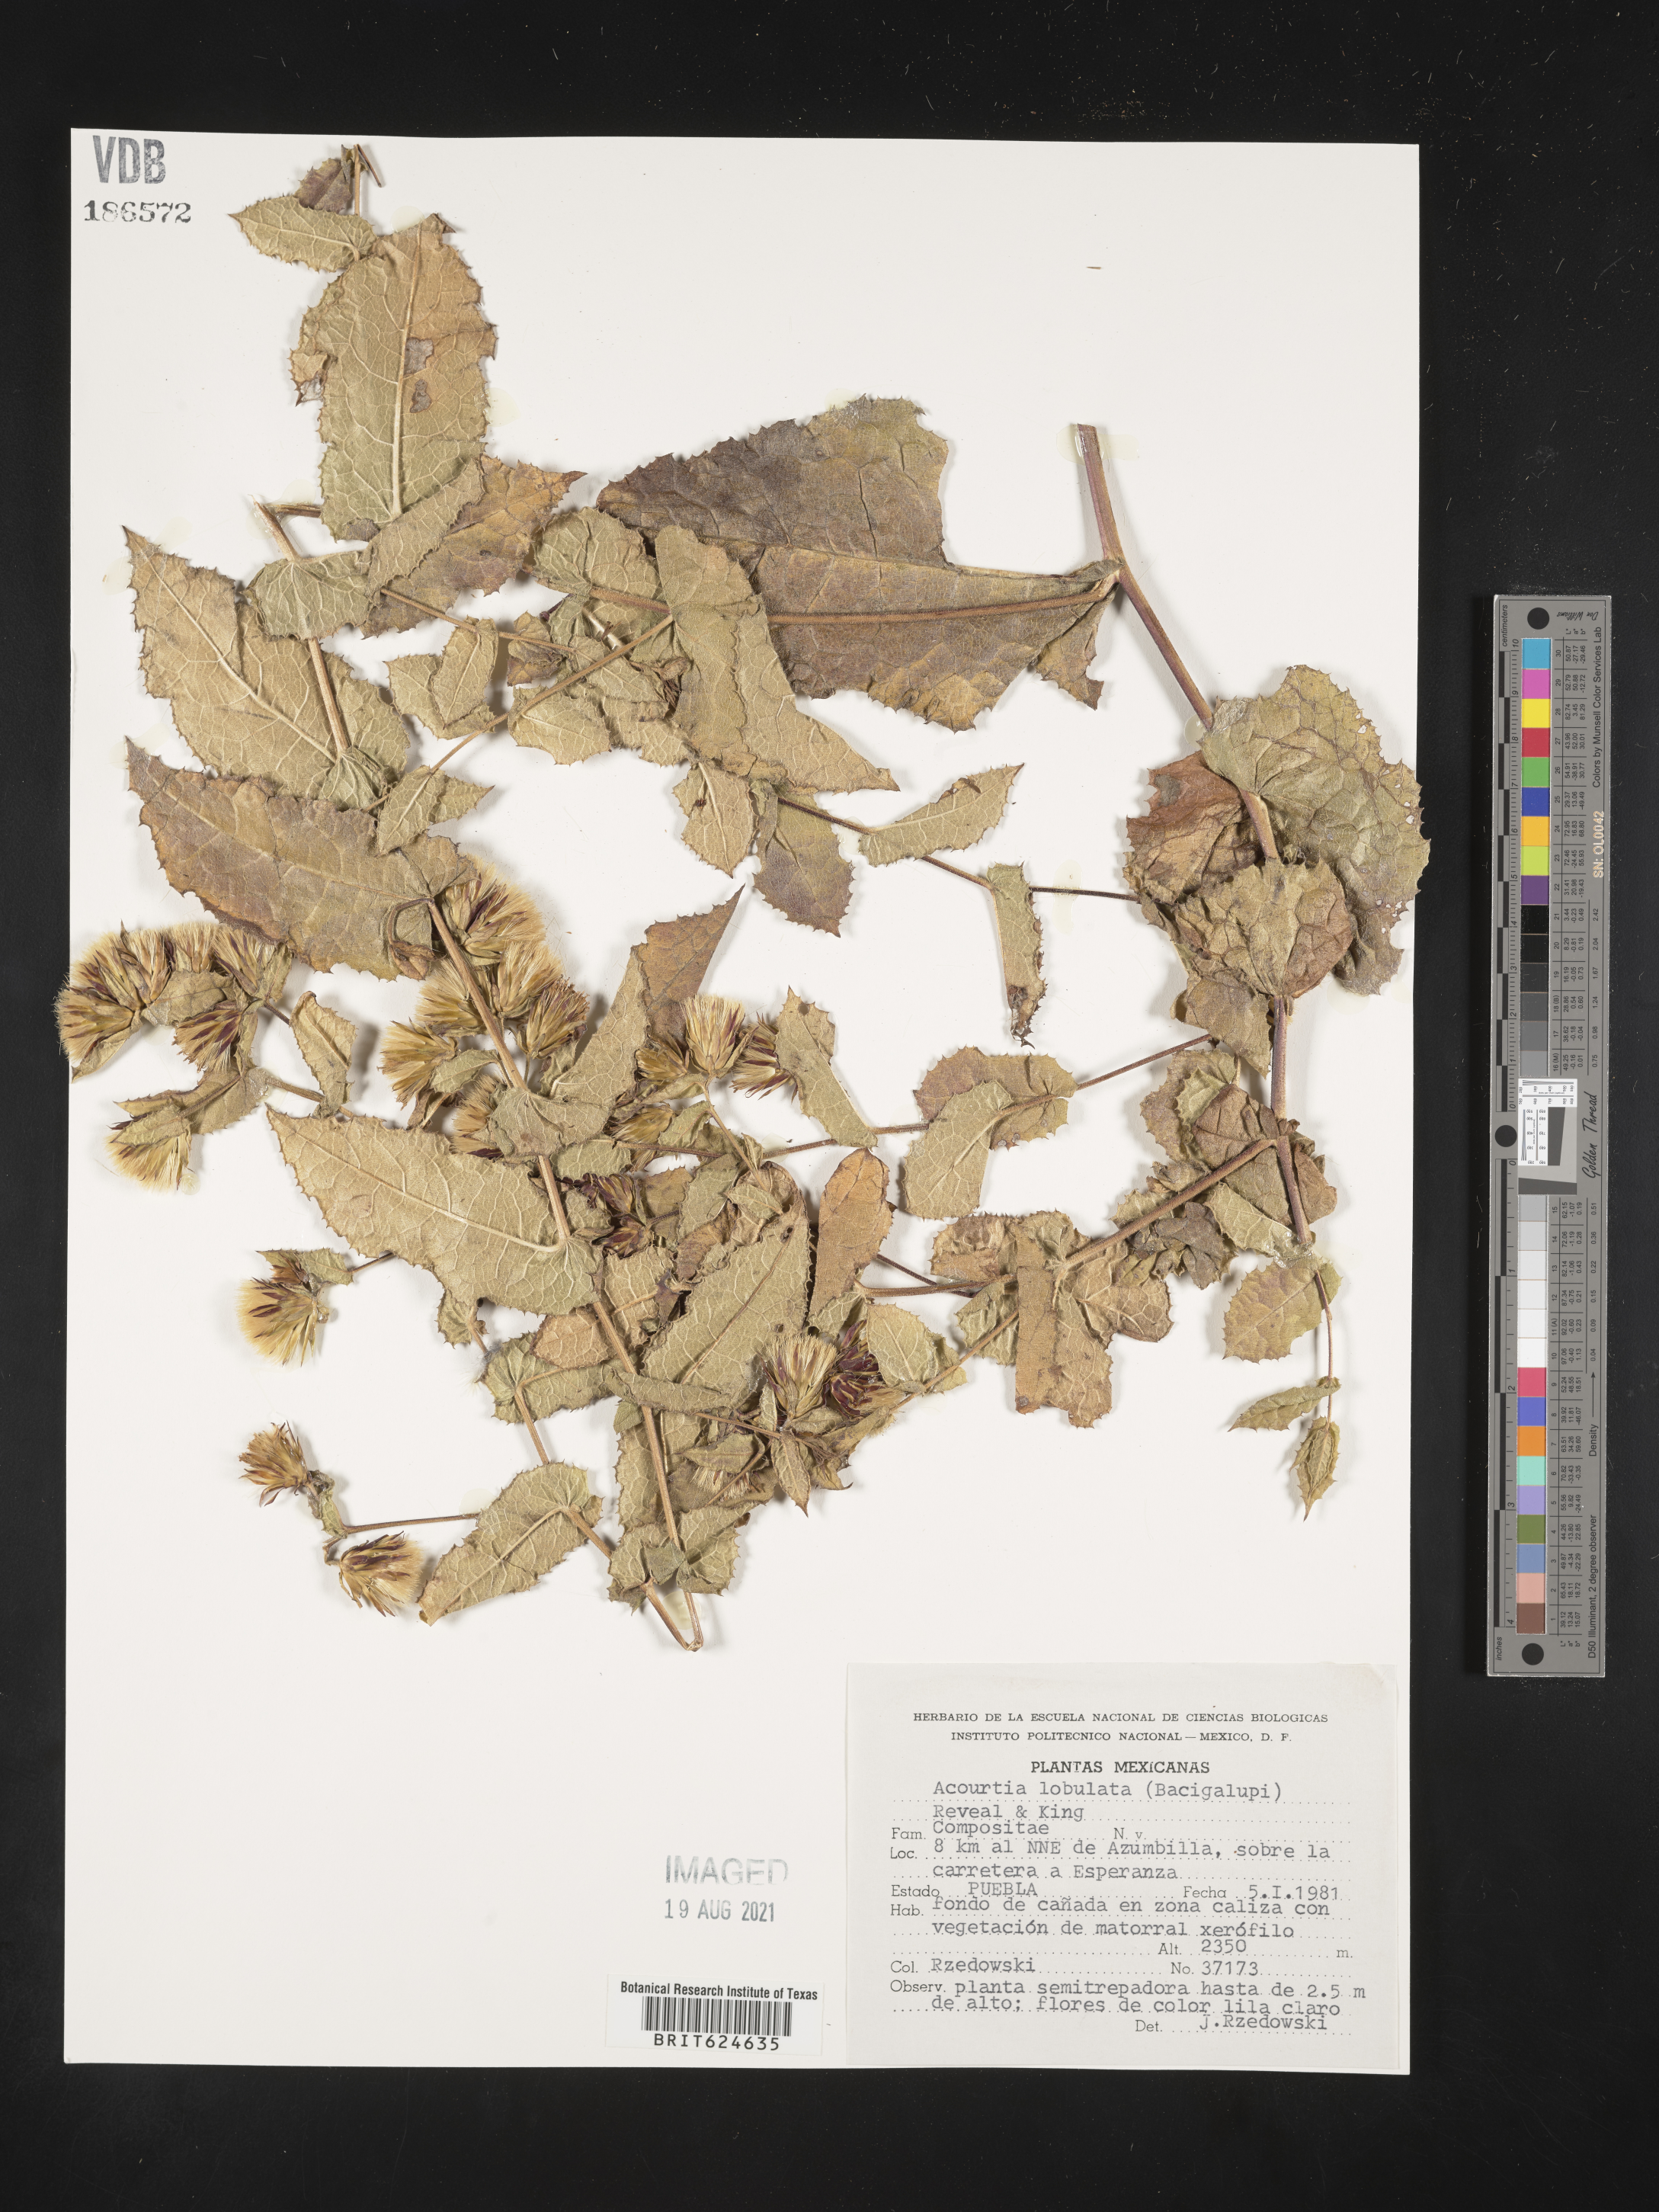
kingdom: Plantae
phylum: Tracheophyta
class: Magnoliopsida
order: Asterales
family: Asteraceae
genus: Acourtia
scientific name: Acourtia
